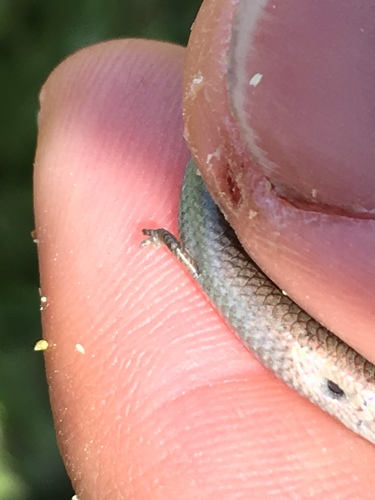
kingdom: Animalia
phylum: Chordata
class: Squamata
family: Scincidae
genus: Chalcides
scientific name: Chalcides striatus
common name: Western (or iberian) three-toed skink
